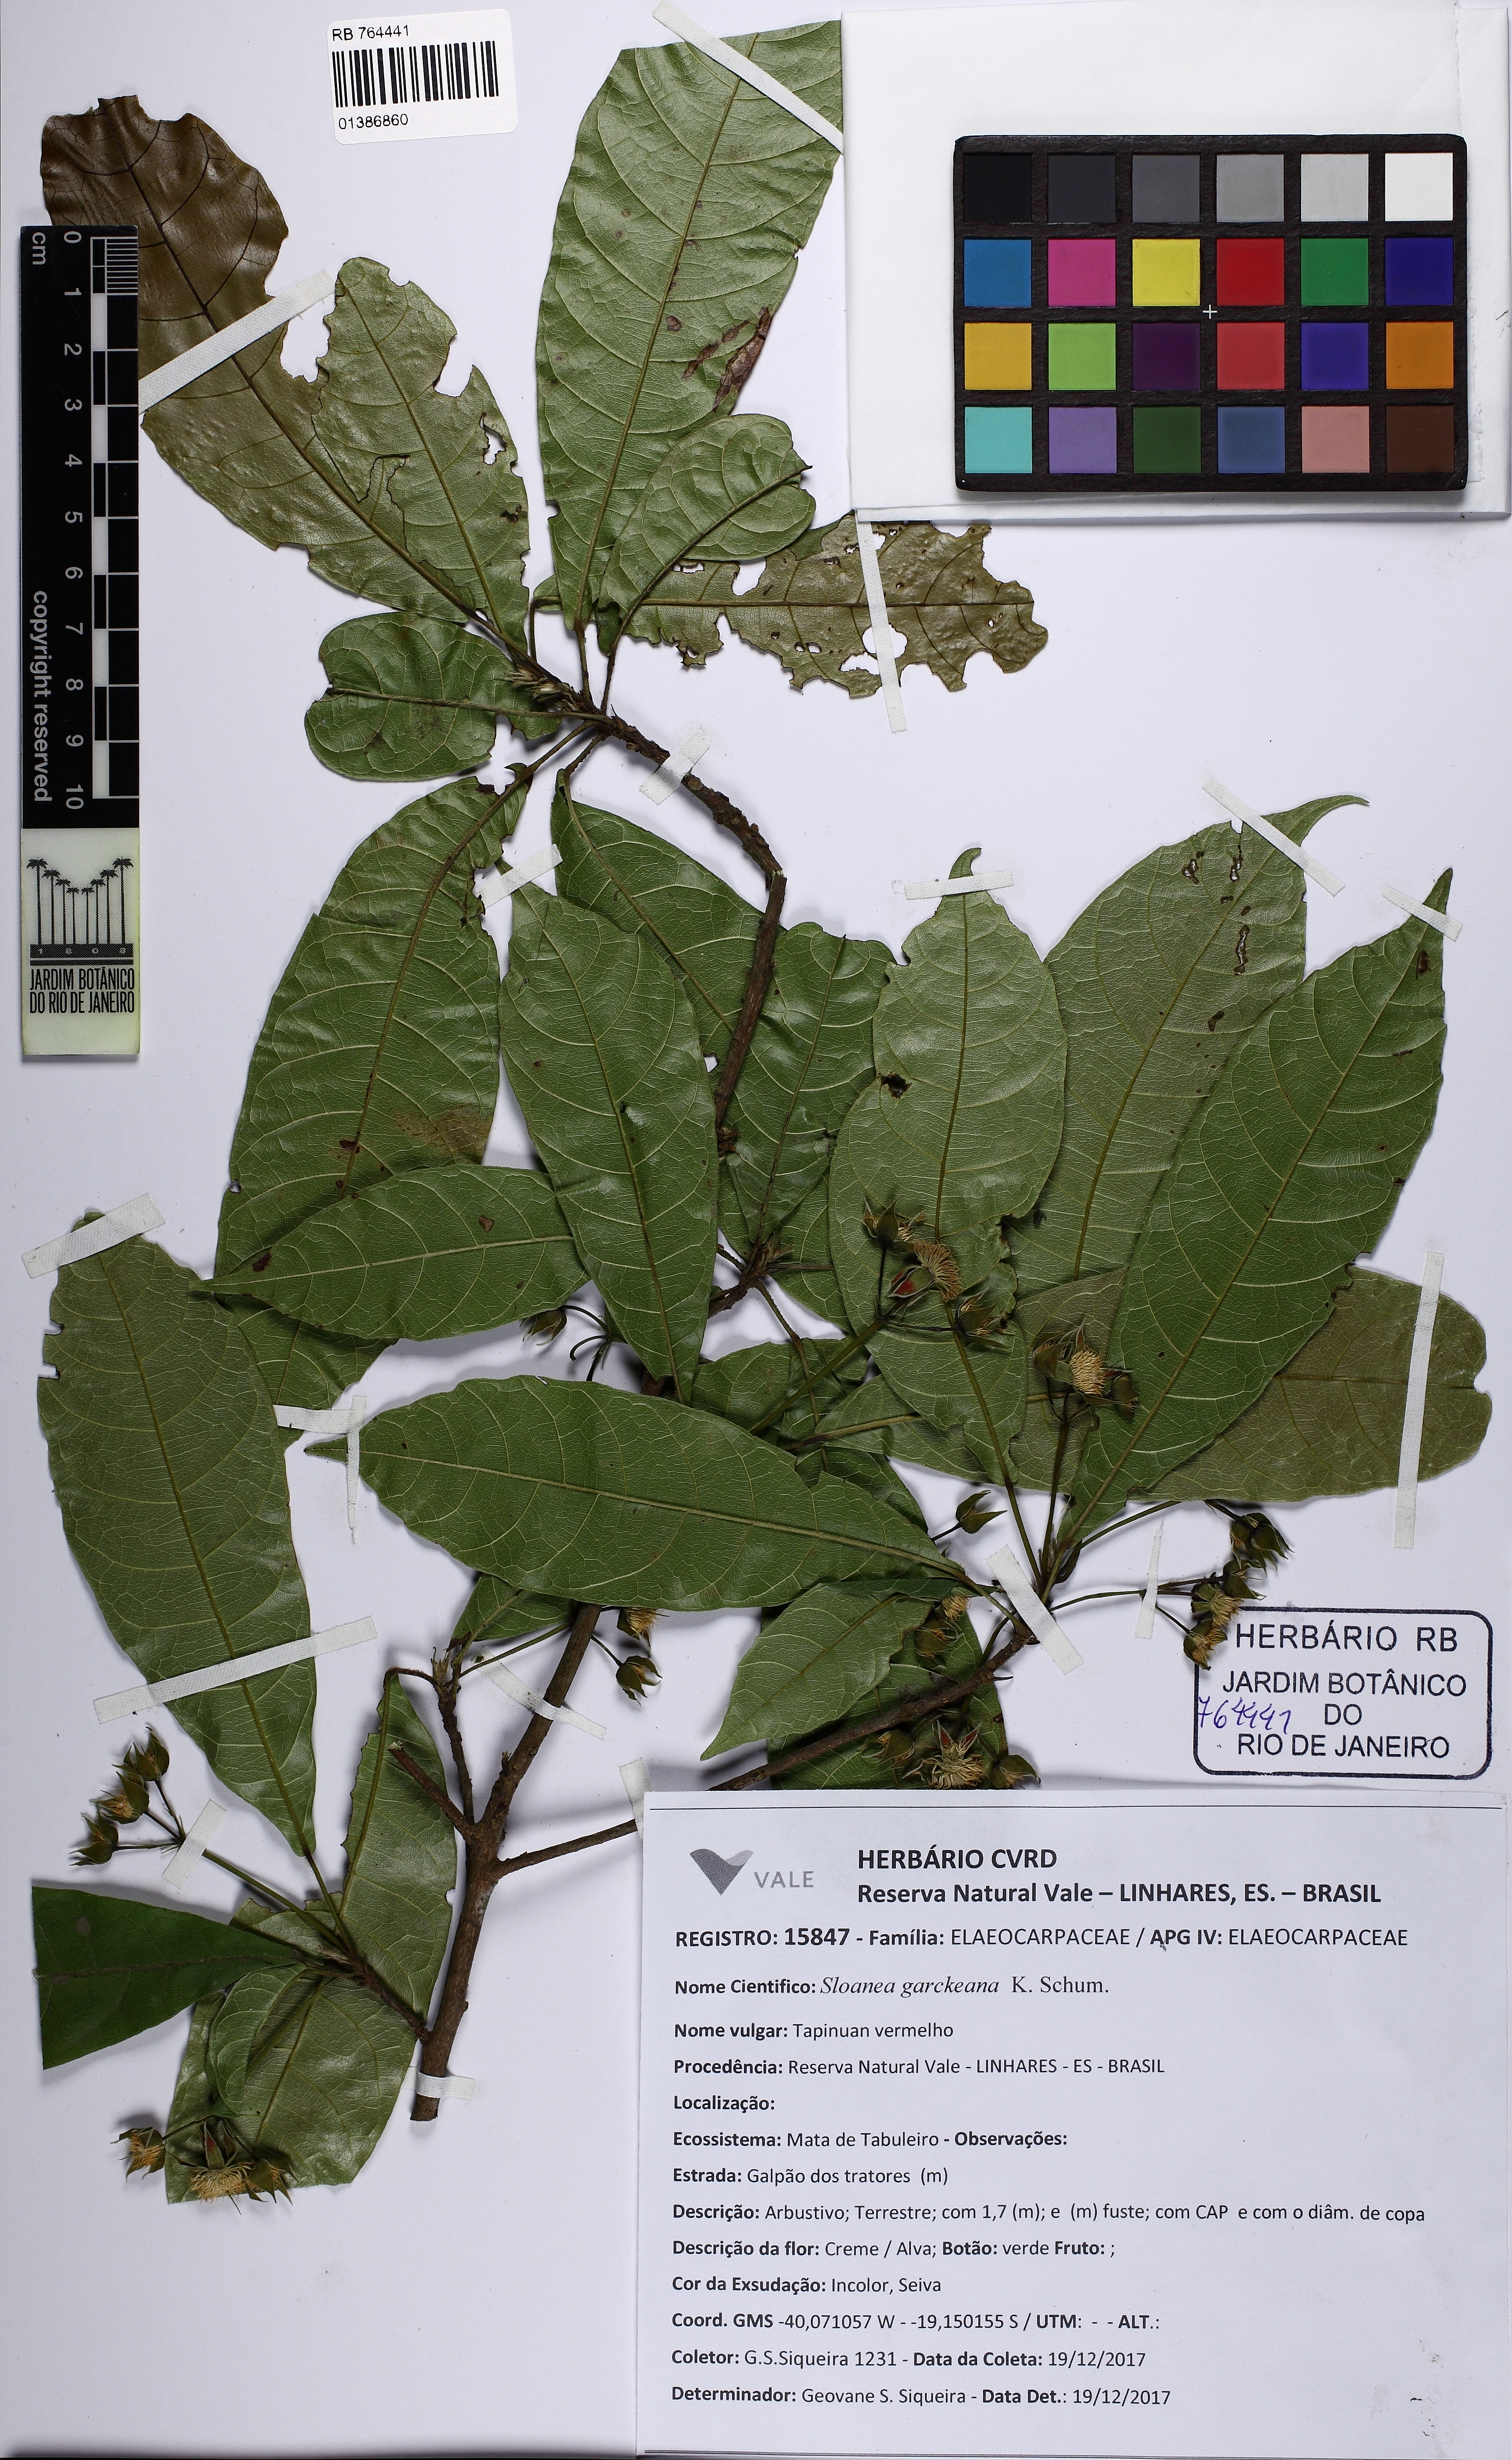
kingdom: Plantae
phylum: Tracheophyta
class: Magnoliopsida
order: Oxalidales
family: Elaeocarpaceae
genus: Sloanea
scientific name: Sloanea garckeana
